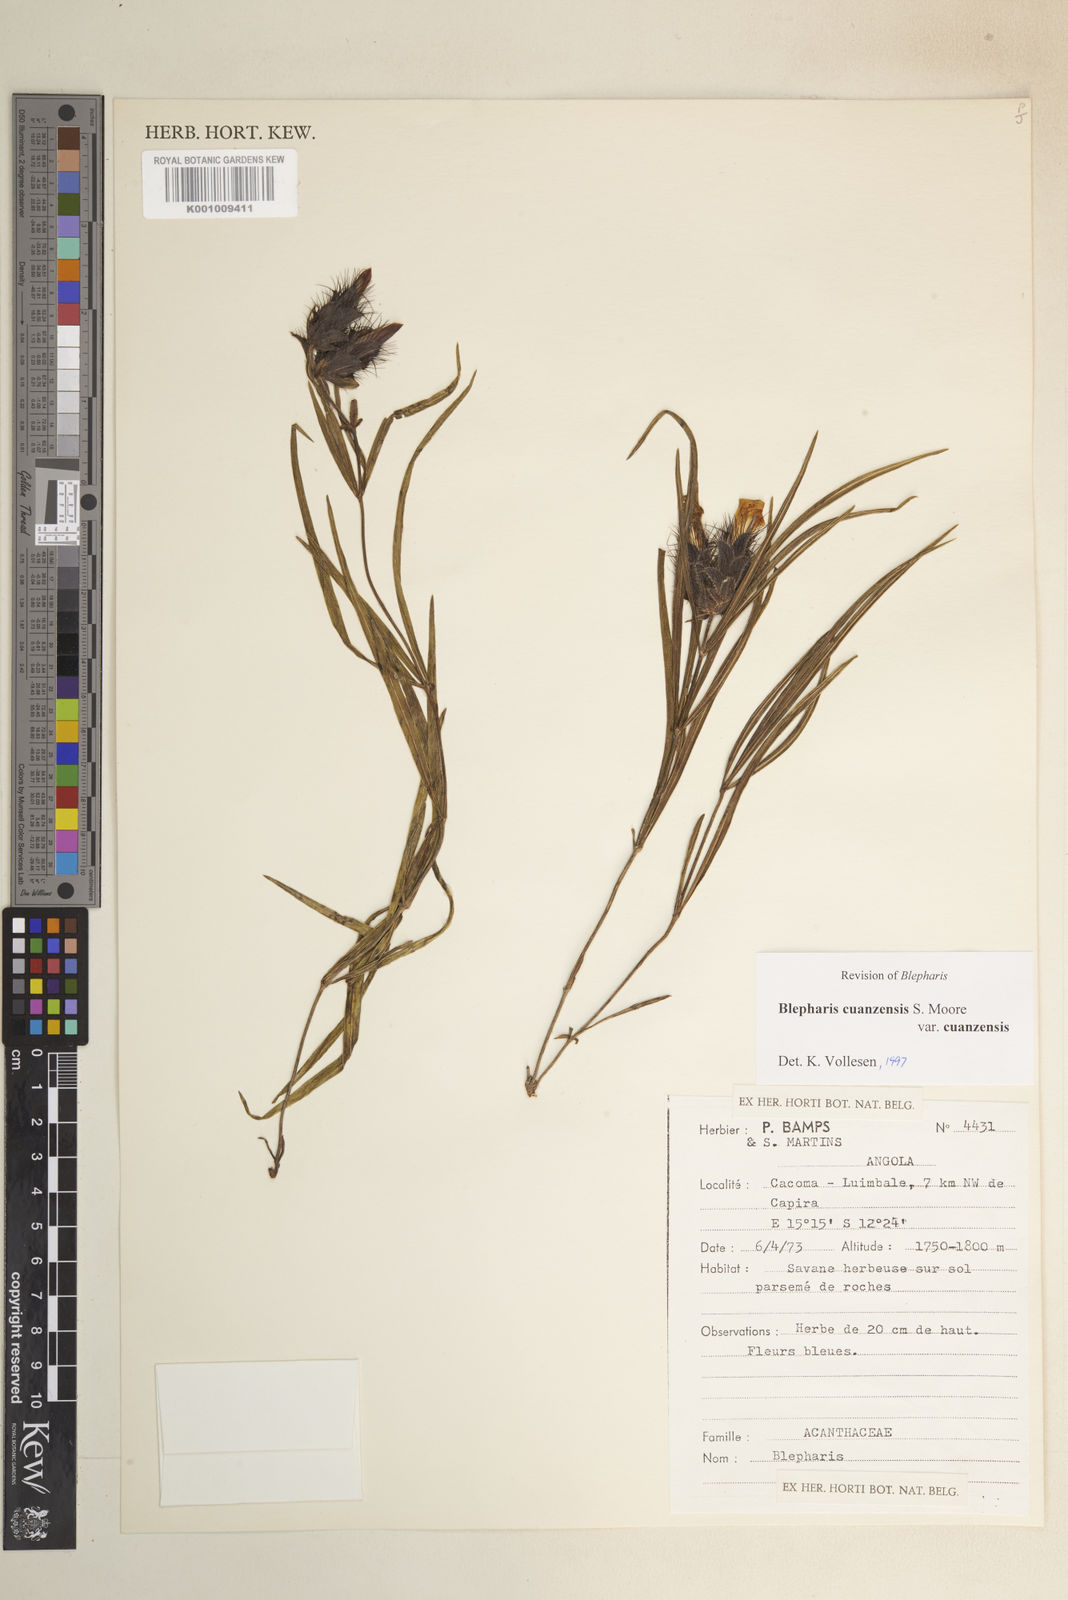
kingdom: Plantae
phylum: Tracheophyta
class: Magnoliopsida
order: Lamiales
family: Acanthaceae
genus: Blepharis
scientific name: Blepharis cuanzensis
